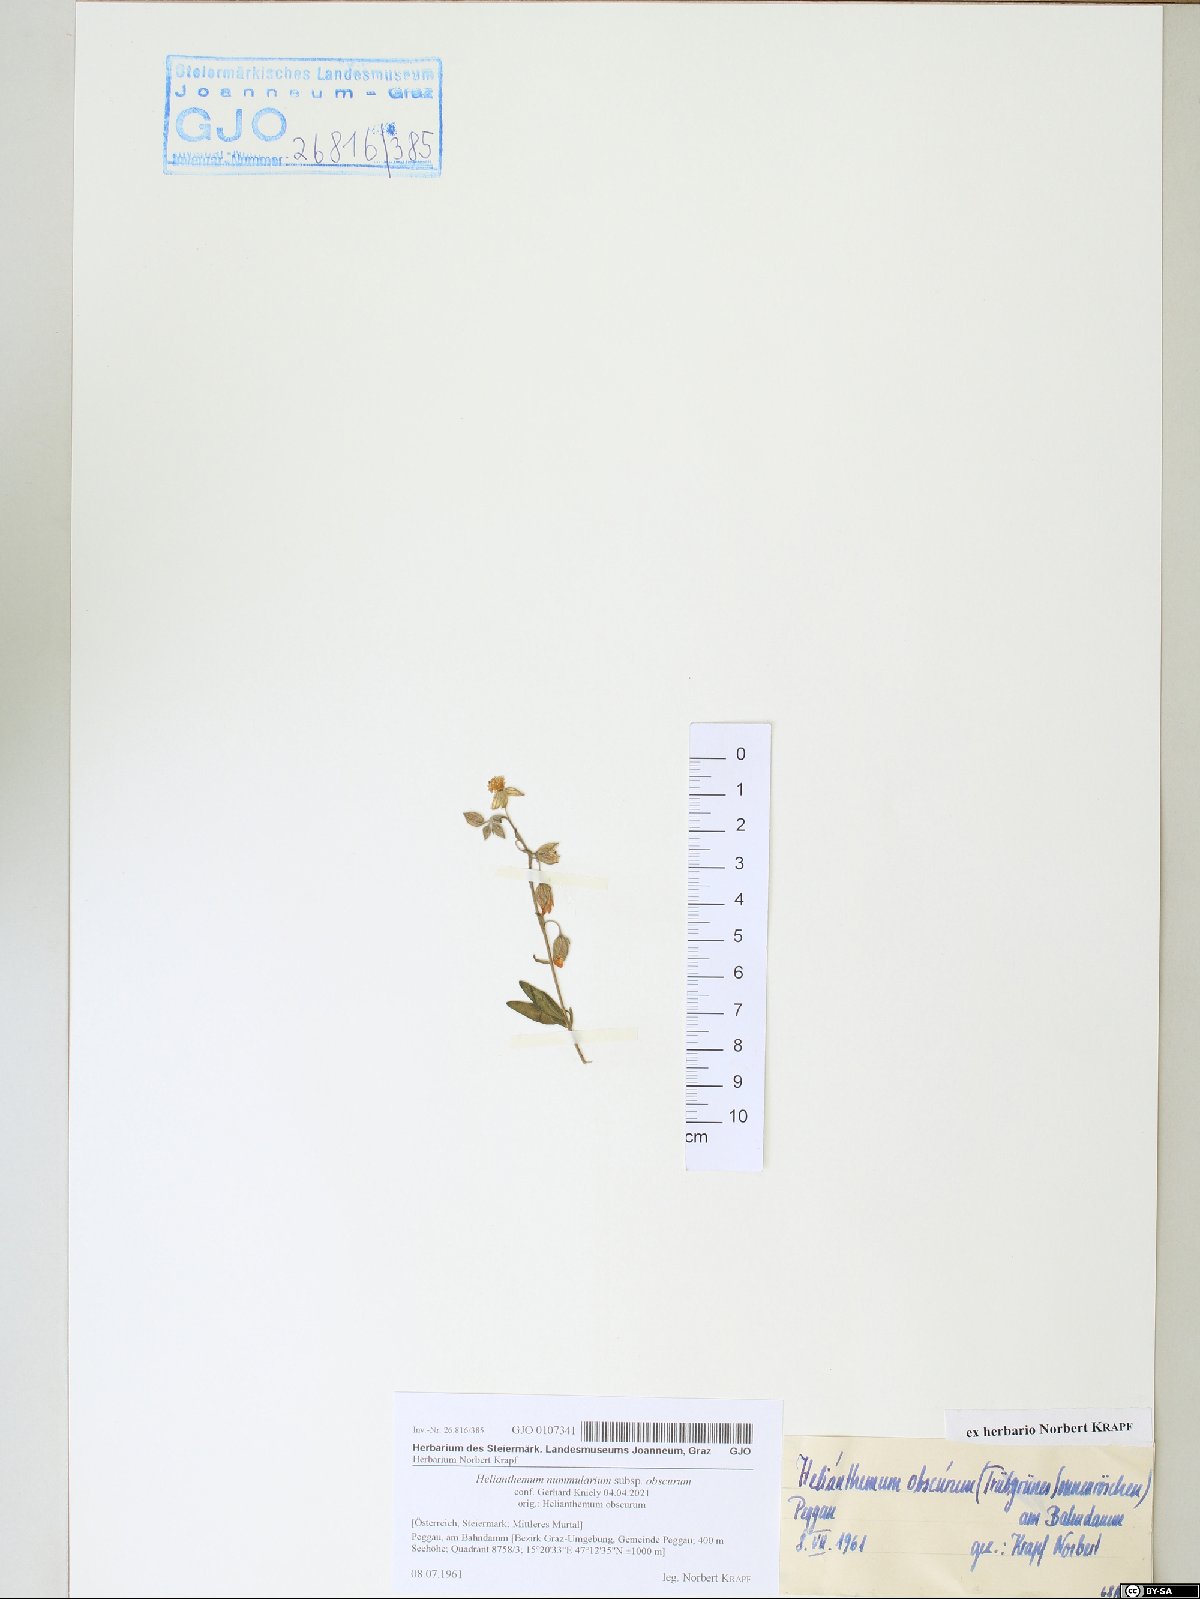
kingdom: Plantae
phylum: Tracheophyta
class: Magnoliopsida
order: Malvales
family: Cistaceae
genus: Helianthemum
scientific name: Helianthemum nummularium
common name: Common rock-rose
